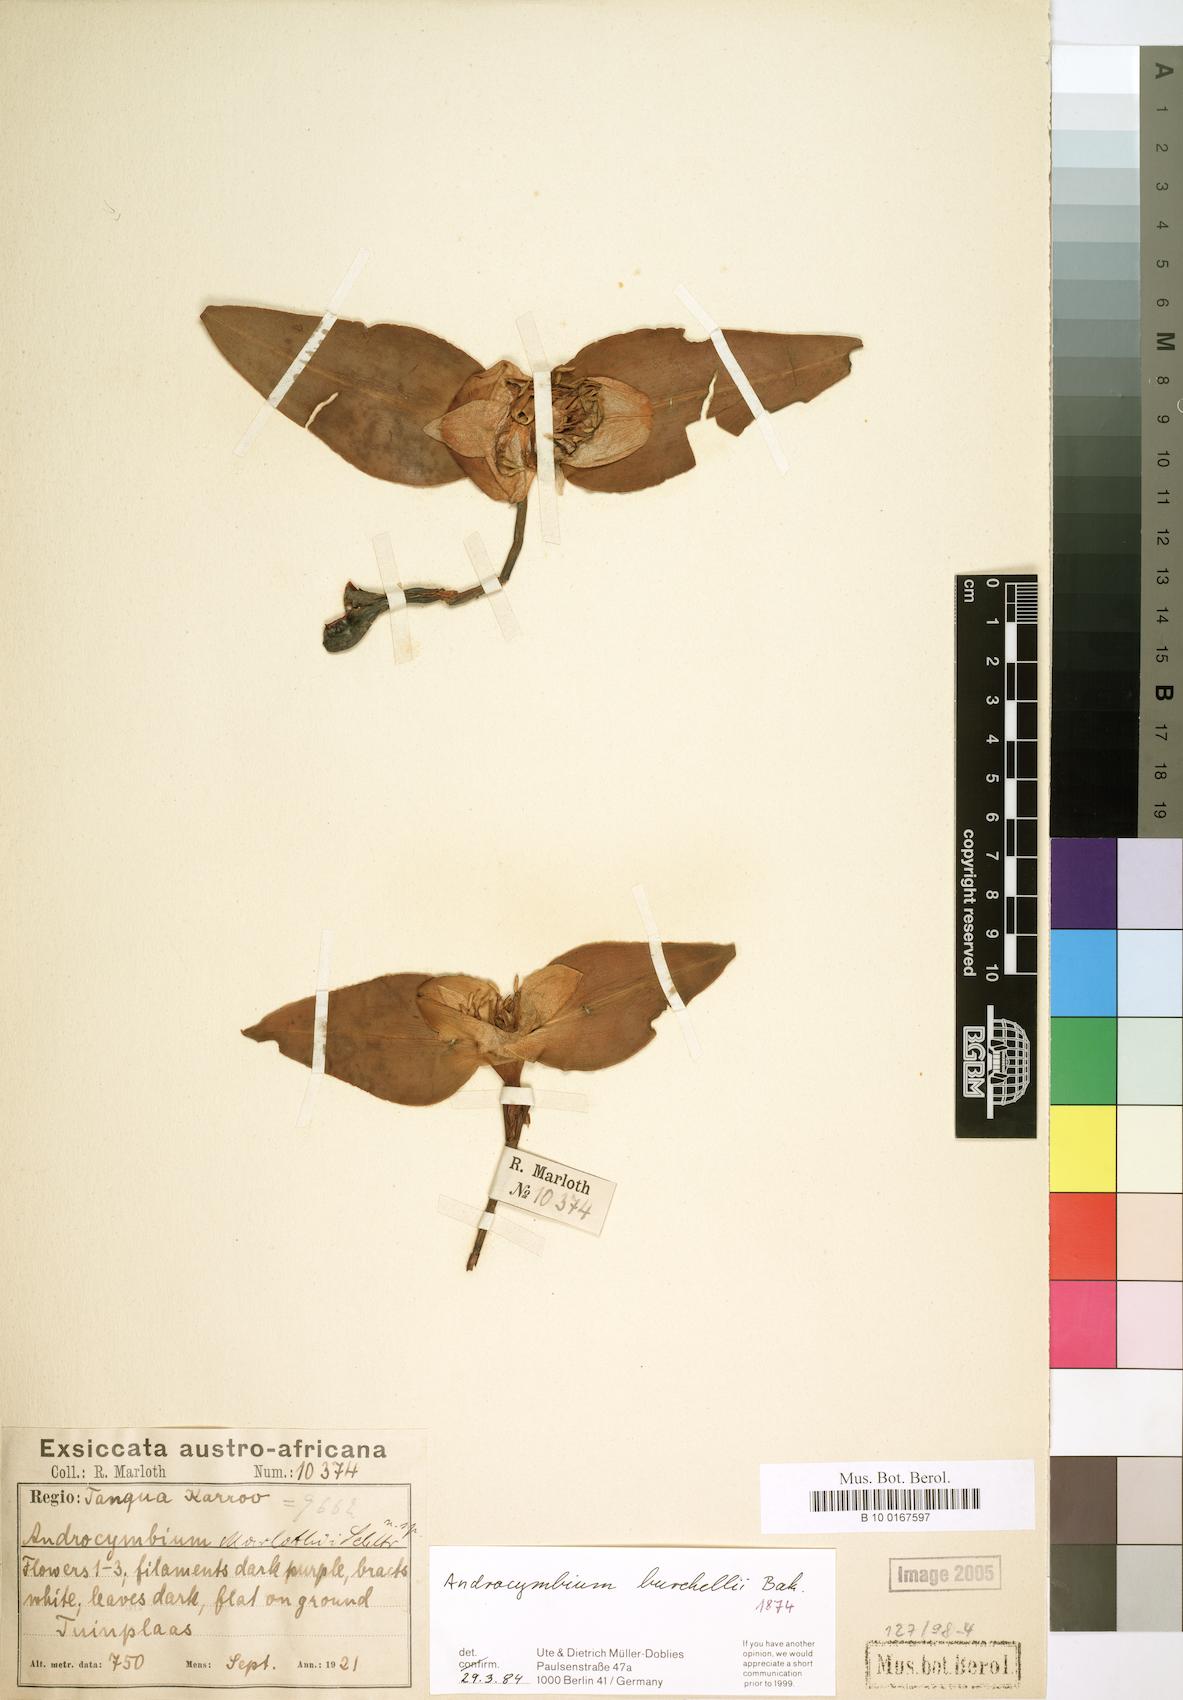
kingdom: Plantae
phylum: Tracheophyta
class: Liliopsida
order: Liliales
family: Colchicaceae
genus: Colchicum
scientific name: Colchicum burchellii
